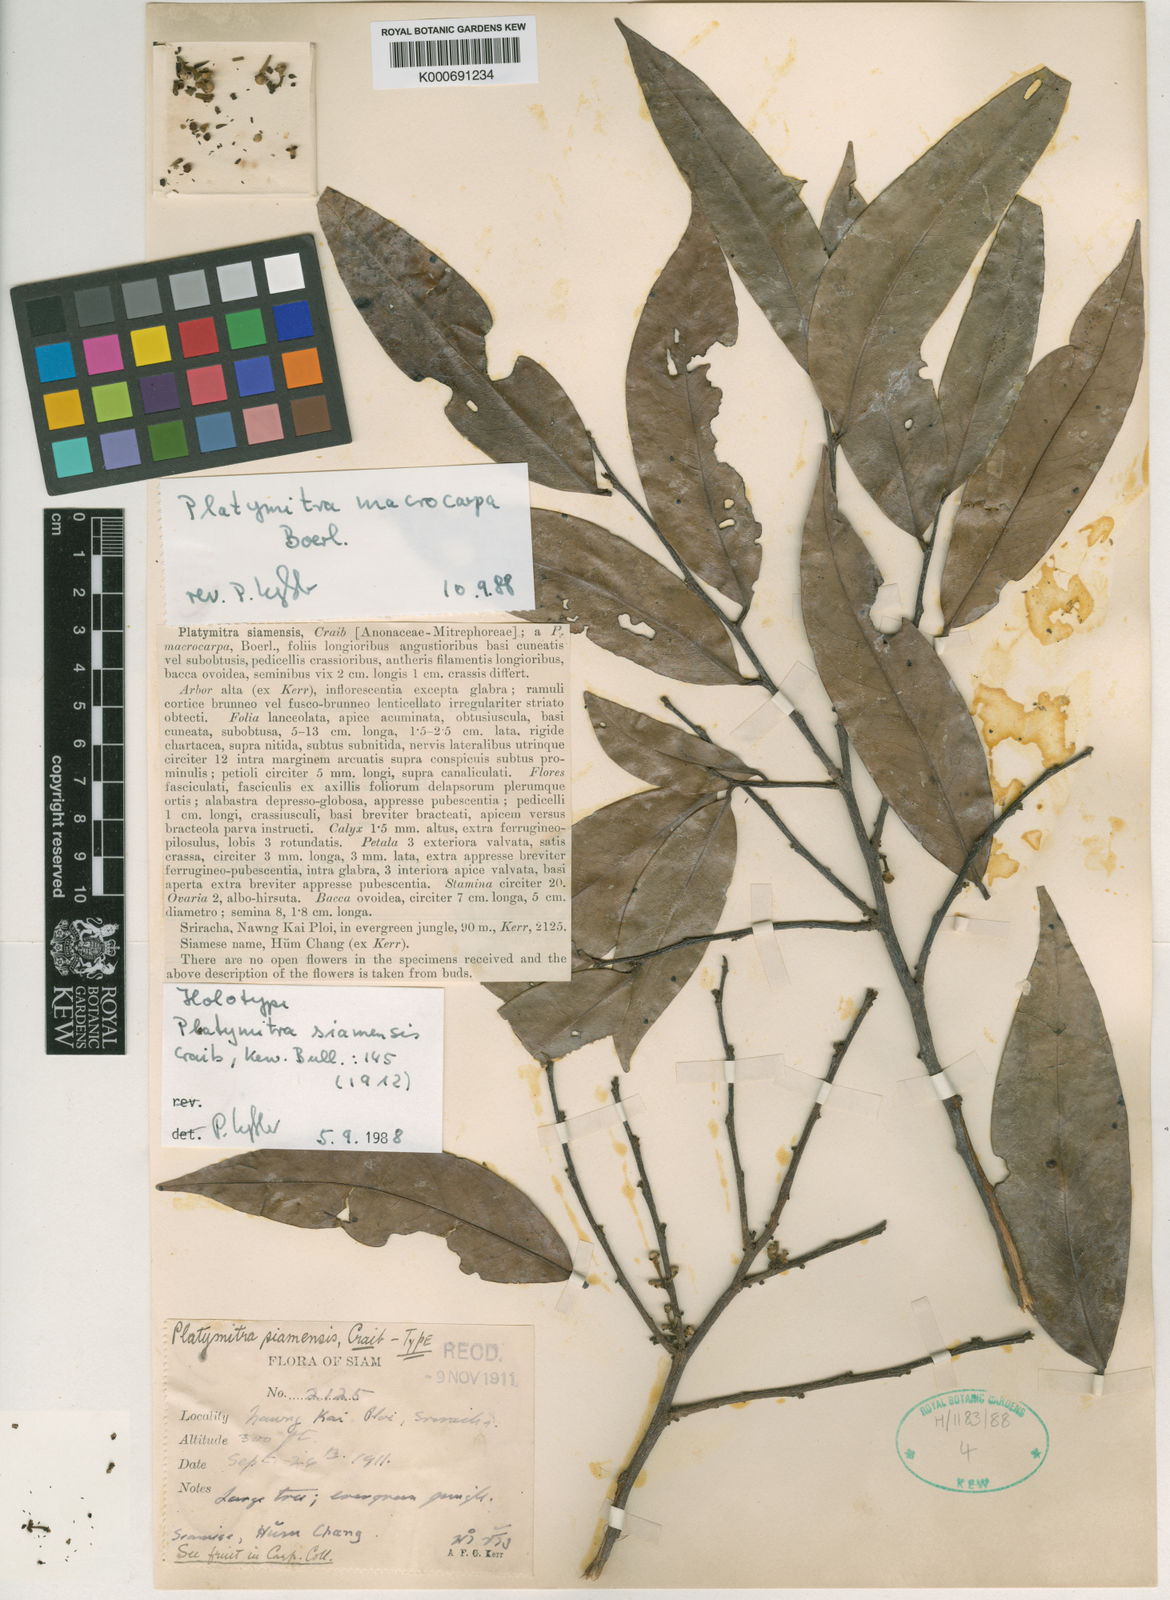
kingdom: Plantae
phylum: Tracheophyta
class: Magnoliopsida
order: Magnoliales
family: Annonaceae
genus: Platymitra
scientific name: Platymitra macrocarpa
